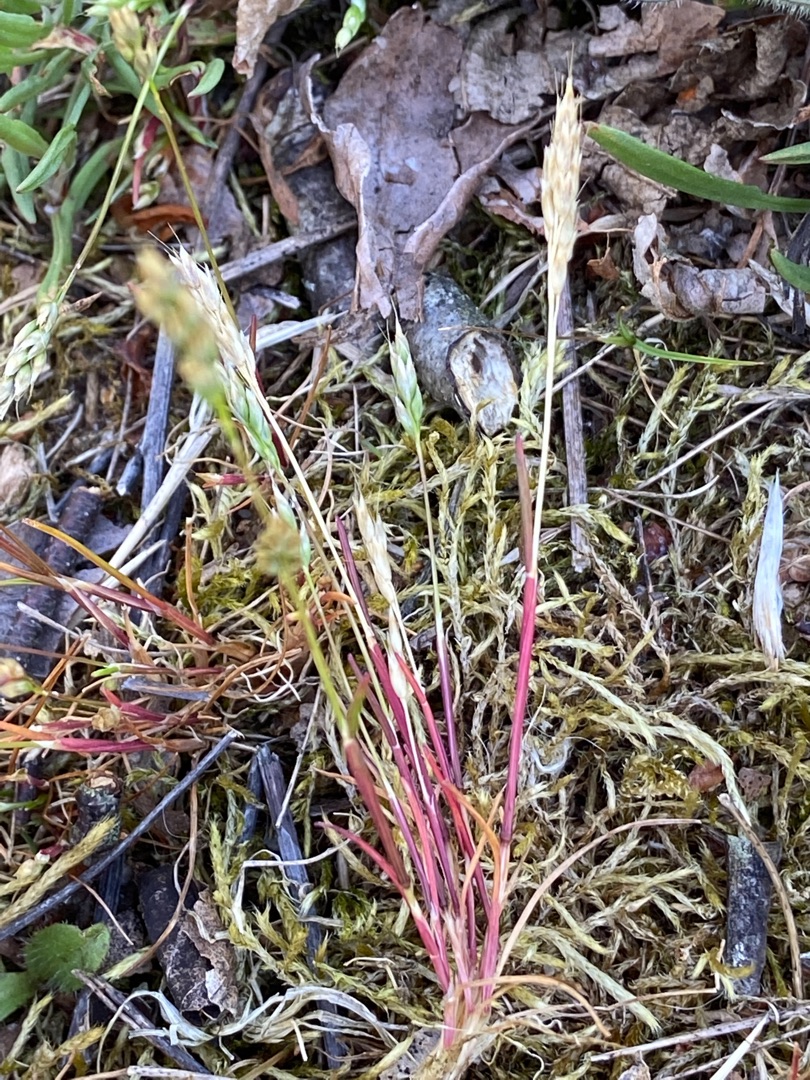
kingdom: Plantae
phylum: Tracheophyta
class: Liliopsida
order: Poales
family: Poaceae
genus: Aira
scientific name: Aira praecox
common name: Tidlig dværgbunke
